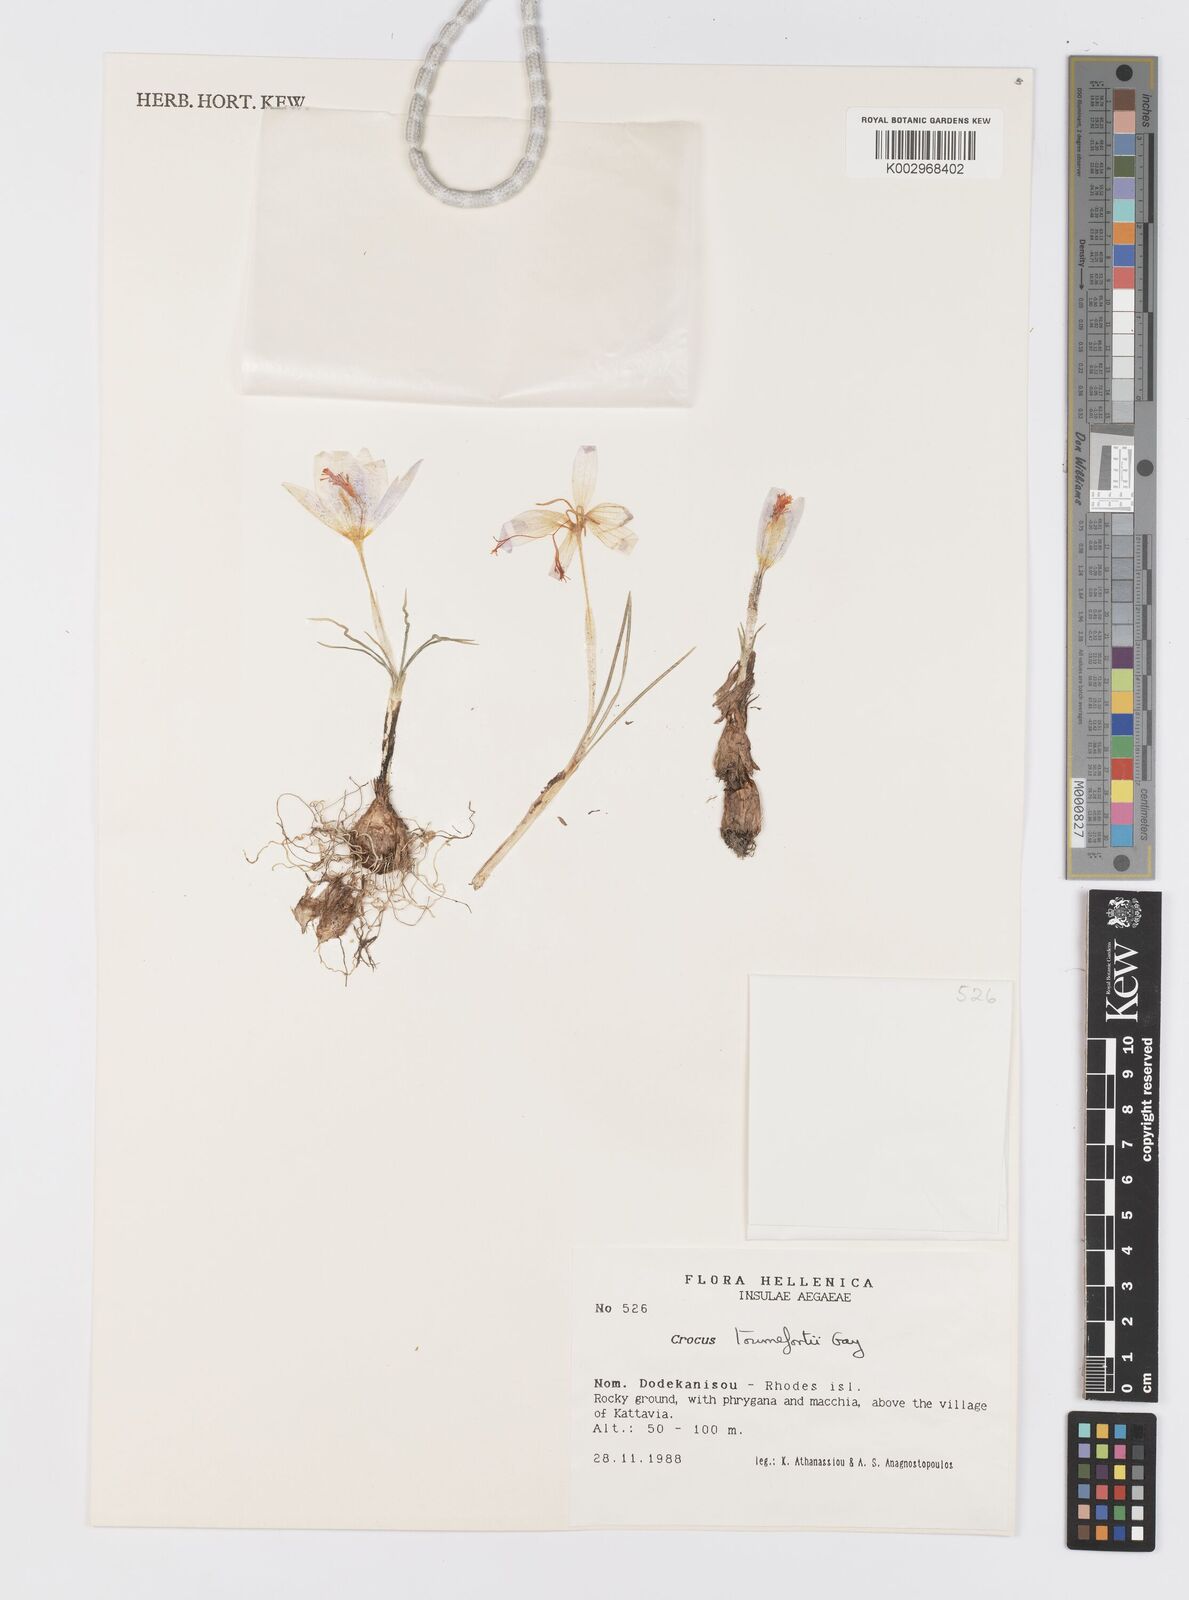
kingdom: Plantae
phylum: Tracheophyta
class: Liliopsida
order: Asparagales
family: Iridaceae
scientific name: Iridaceae
